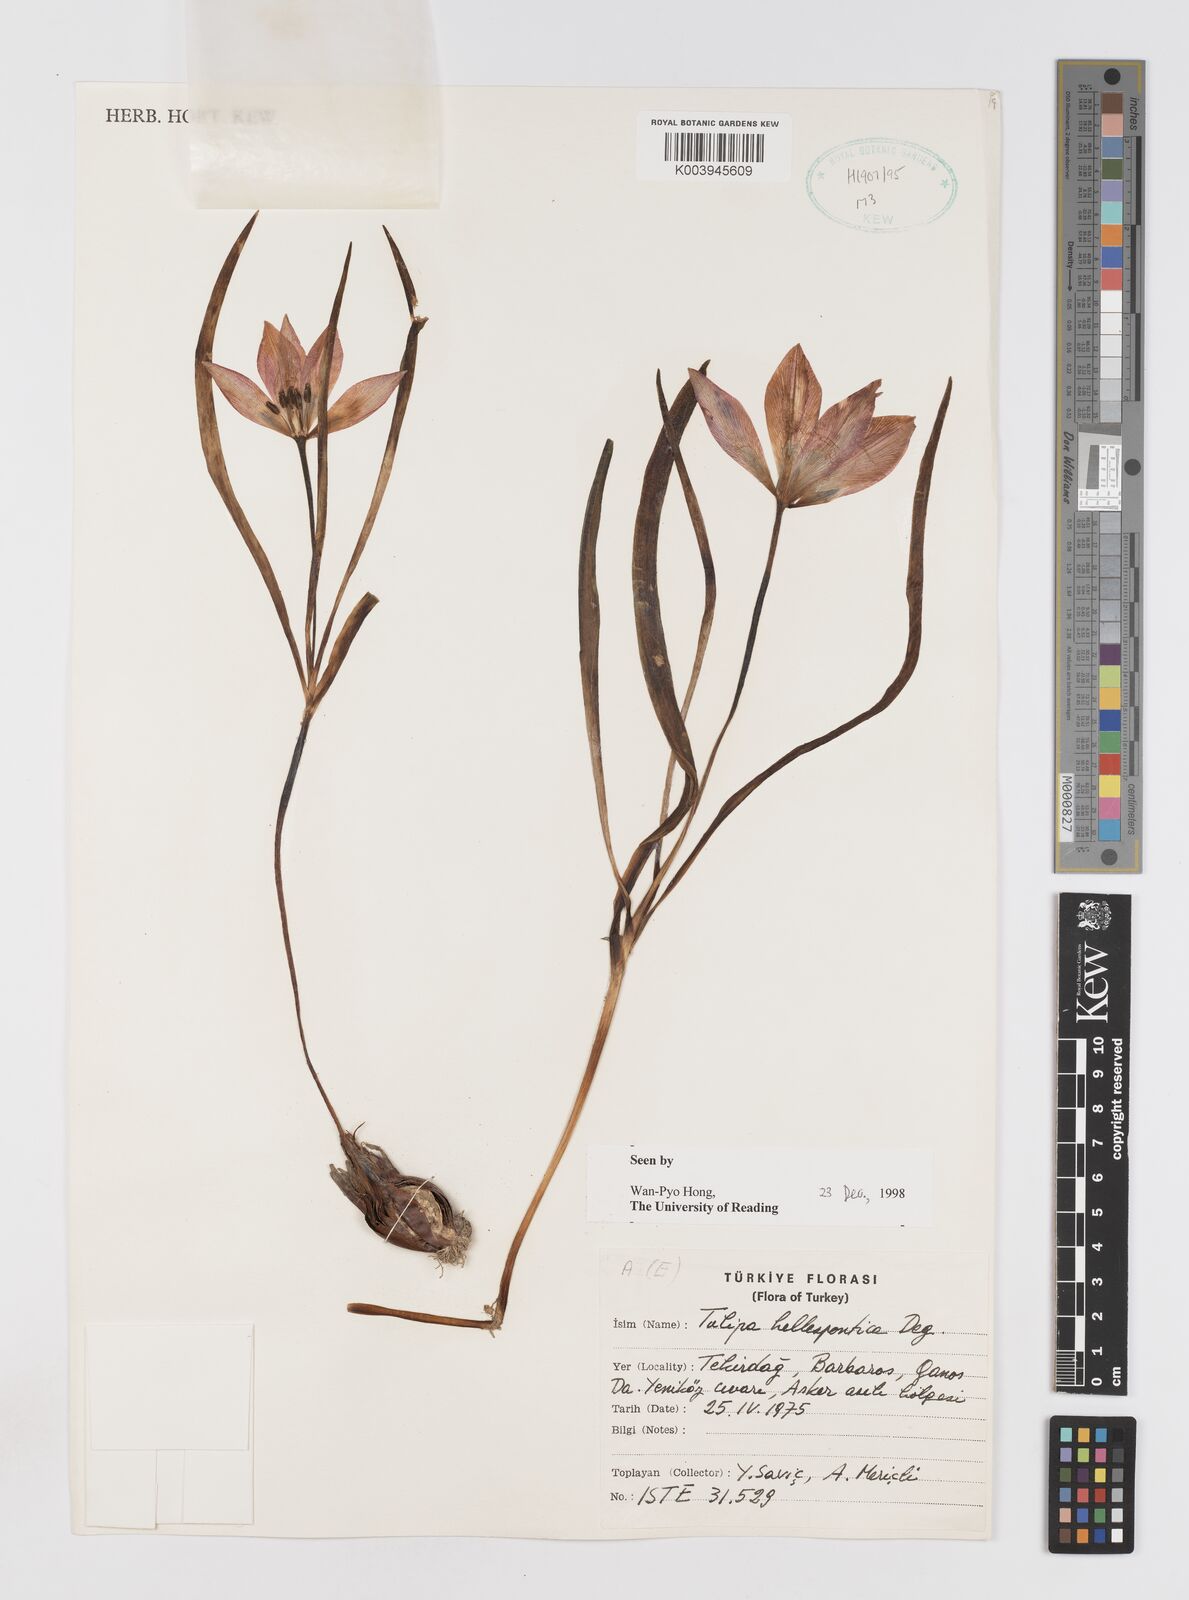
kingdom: Plantae
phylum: Tracheophyta
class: Liliopsida
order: Liliales
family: Liliaceae
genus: Tulipa
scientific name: Tulipa orphanidea
